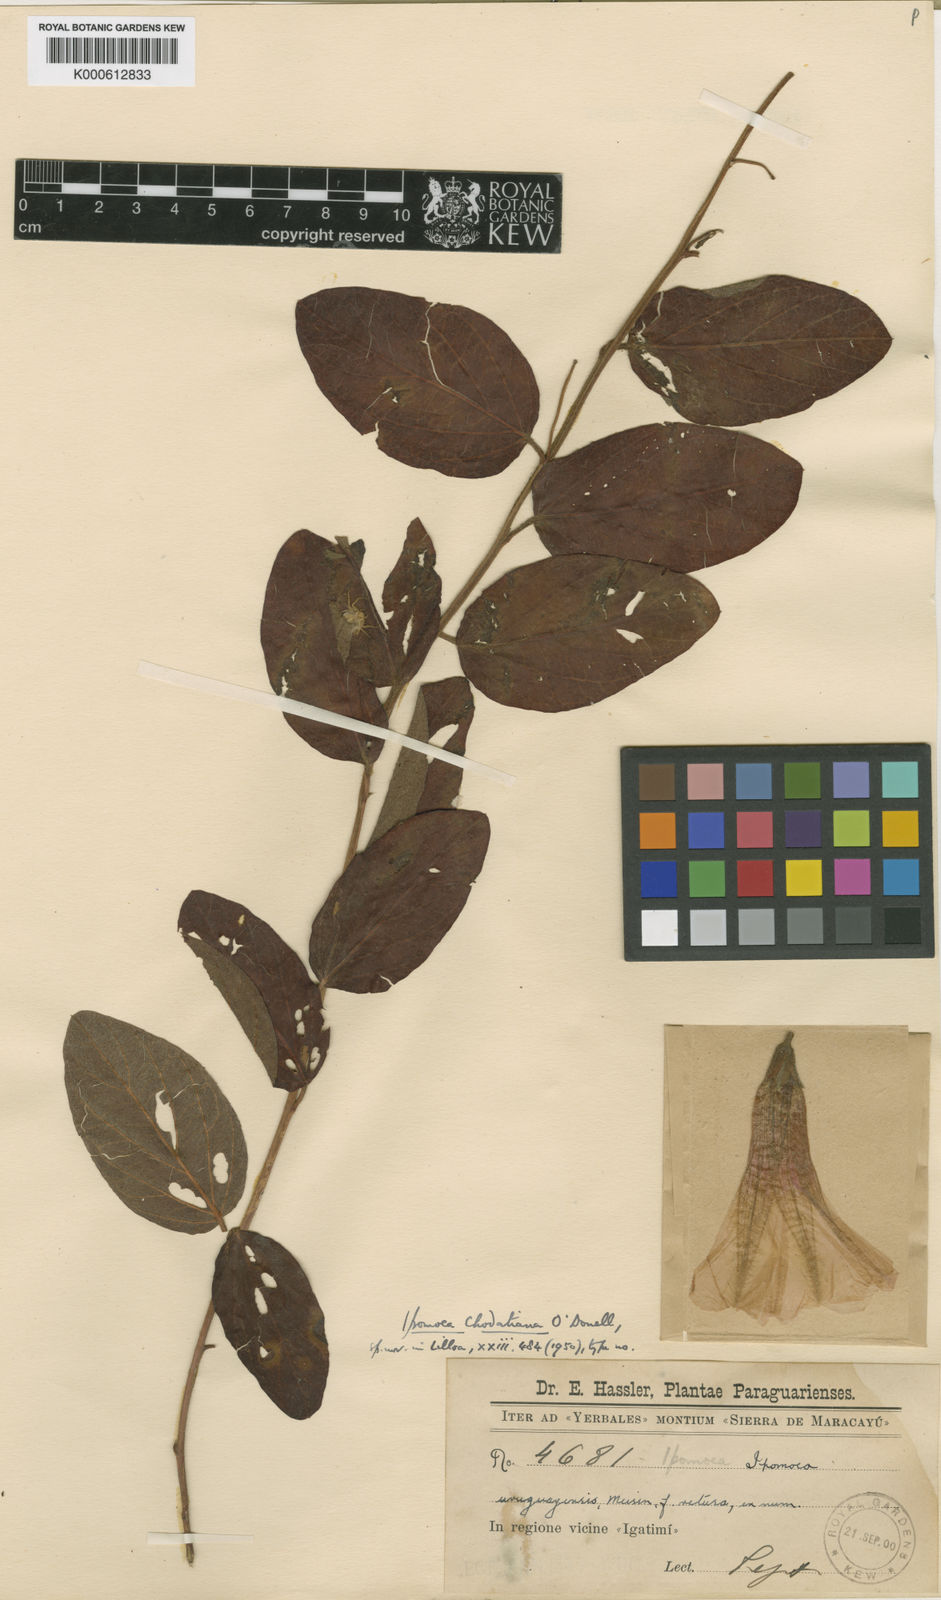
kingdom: Plantae
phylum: Tracheophyta
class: Magnoliopsida
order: Solanales
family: Convolvulaceae
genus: Ipomoea
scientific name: Ipomoea chodatiana
